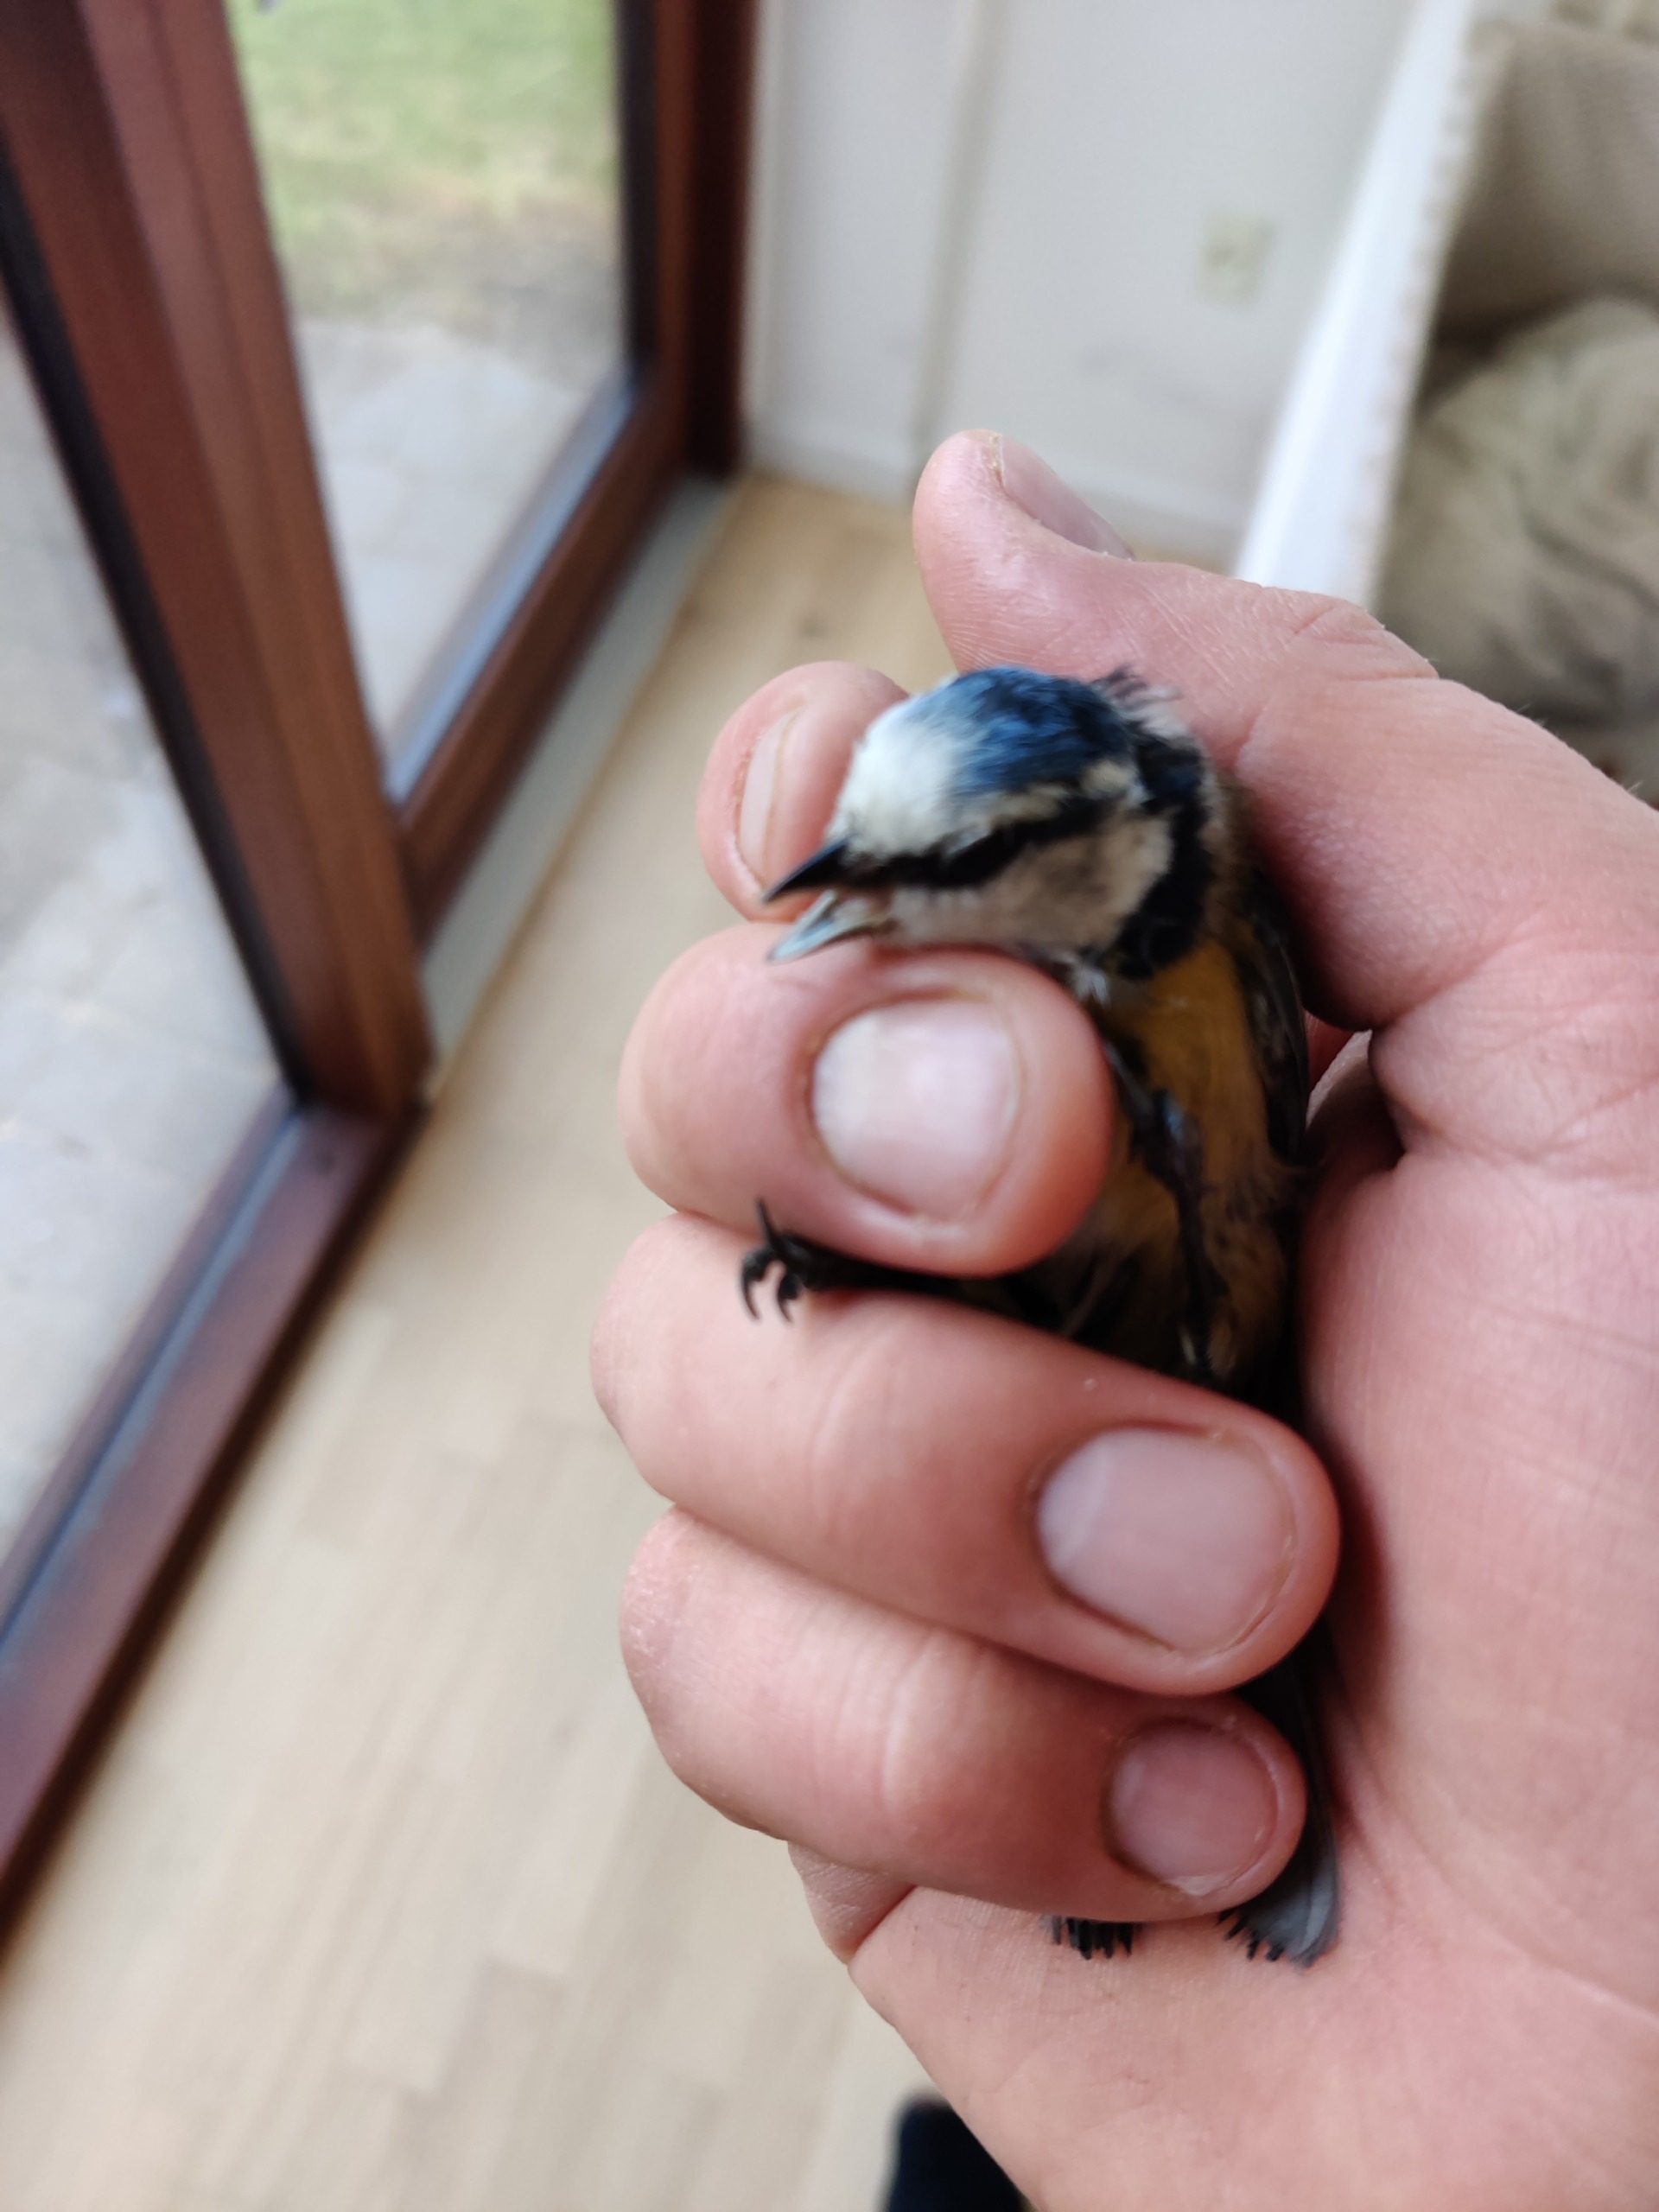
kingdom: Animalia
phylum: Chordata
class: Aves
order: Passeriformes
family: Paridae
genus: Cyanistes
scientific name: Cyanistes caeruleus
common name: Blåmejse
